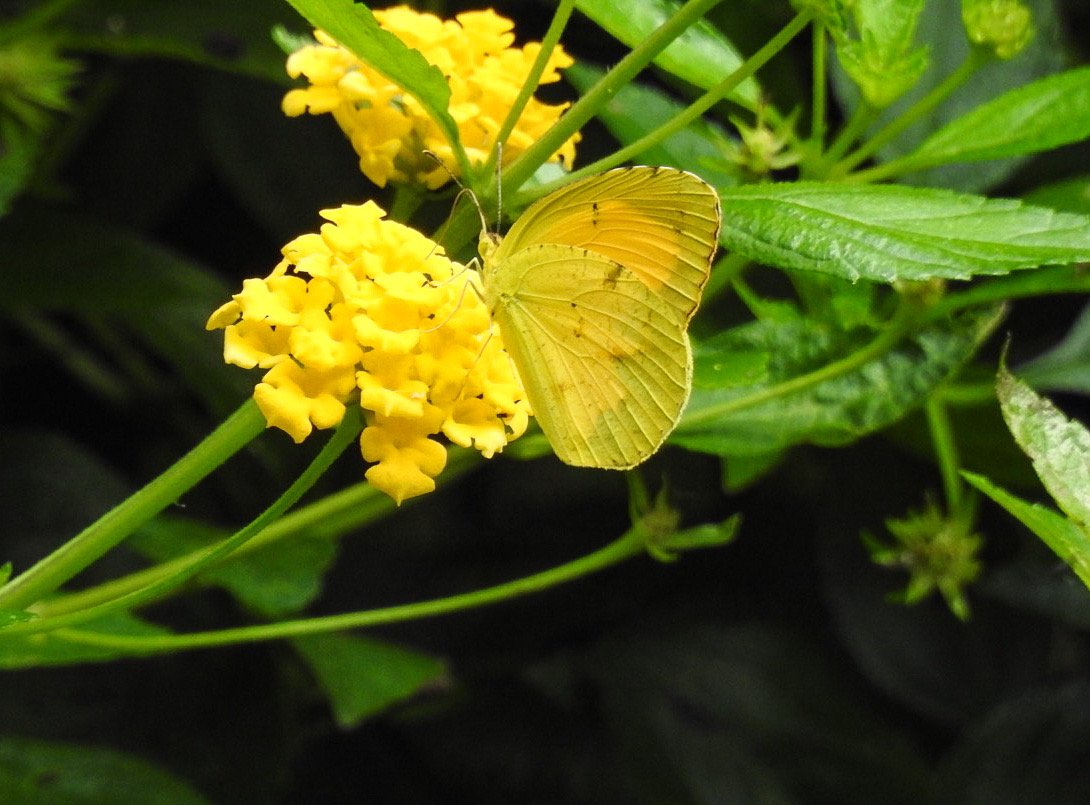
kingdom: Animalia
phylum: Arthropoda
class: Insecta
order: Lepidoptera
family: Pieridae
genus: Abaeis
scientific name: Abaeis nicippe
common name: Sleepy Orange
